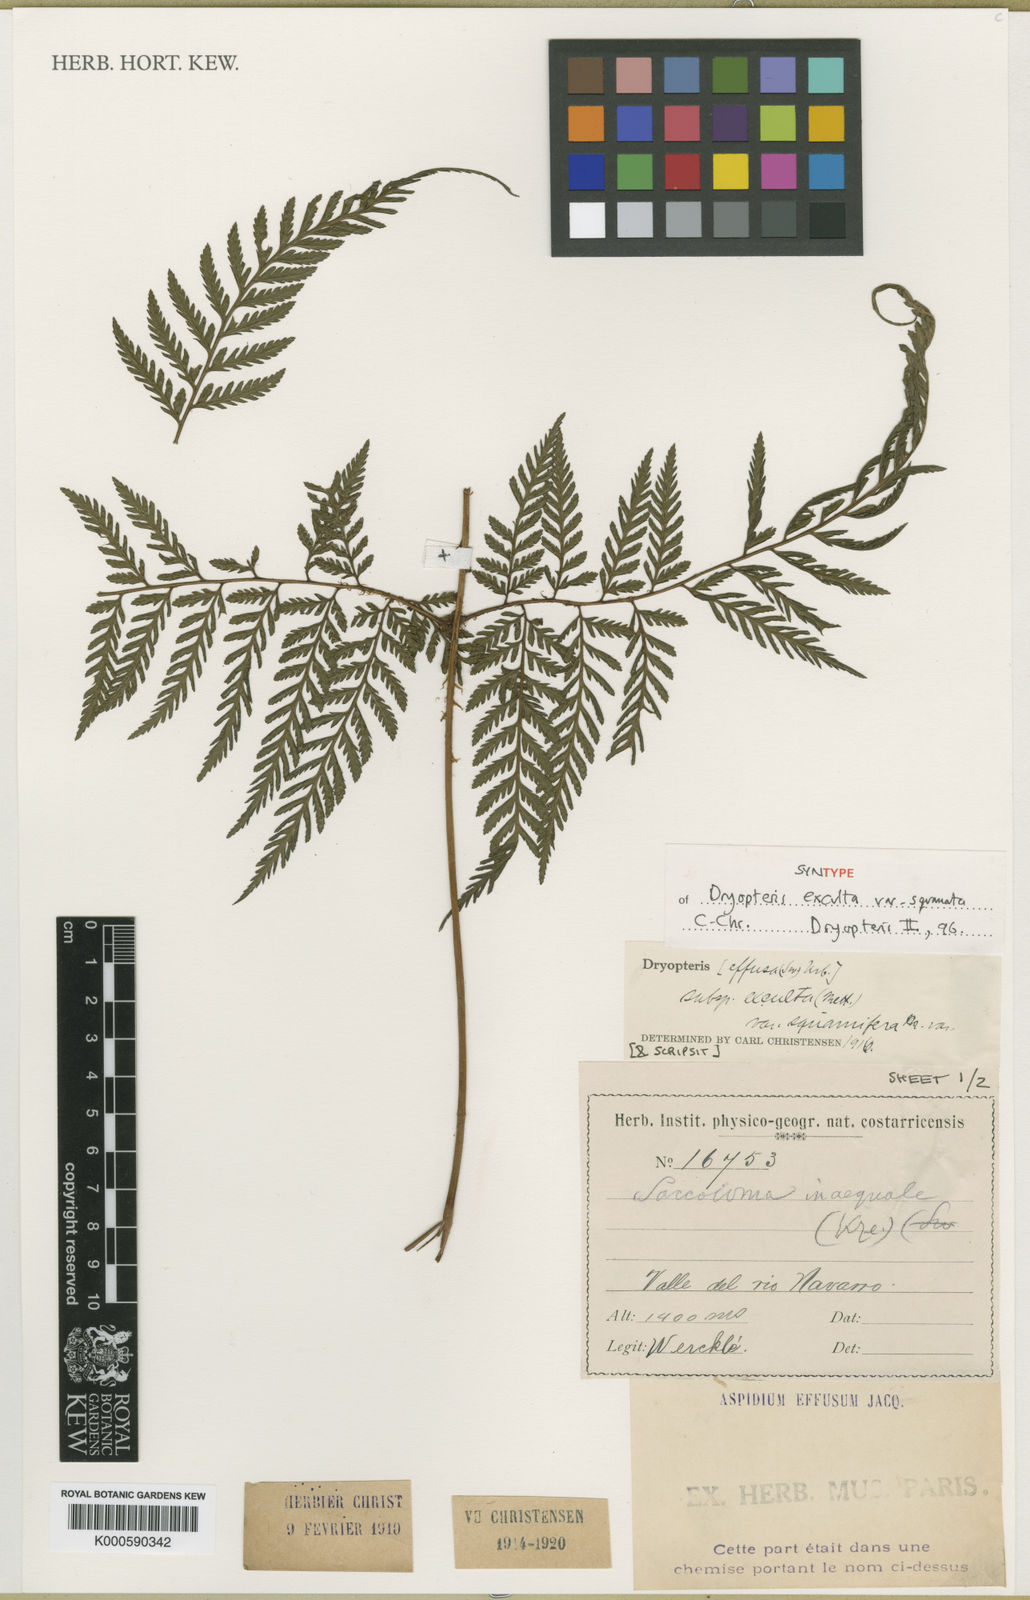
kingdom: Plantae
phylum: Tracheophyta
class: Polypodiopsida
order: Polypodiales
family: Dryopteridaceae
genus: Parapolystichum
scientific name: Parapolystichum excultum
